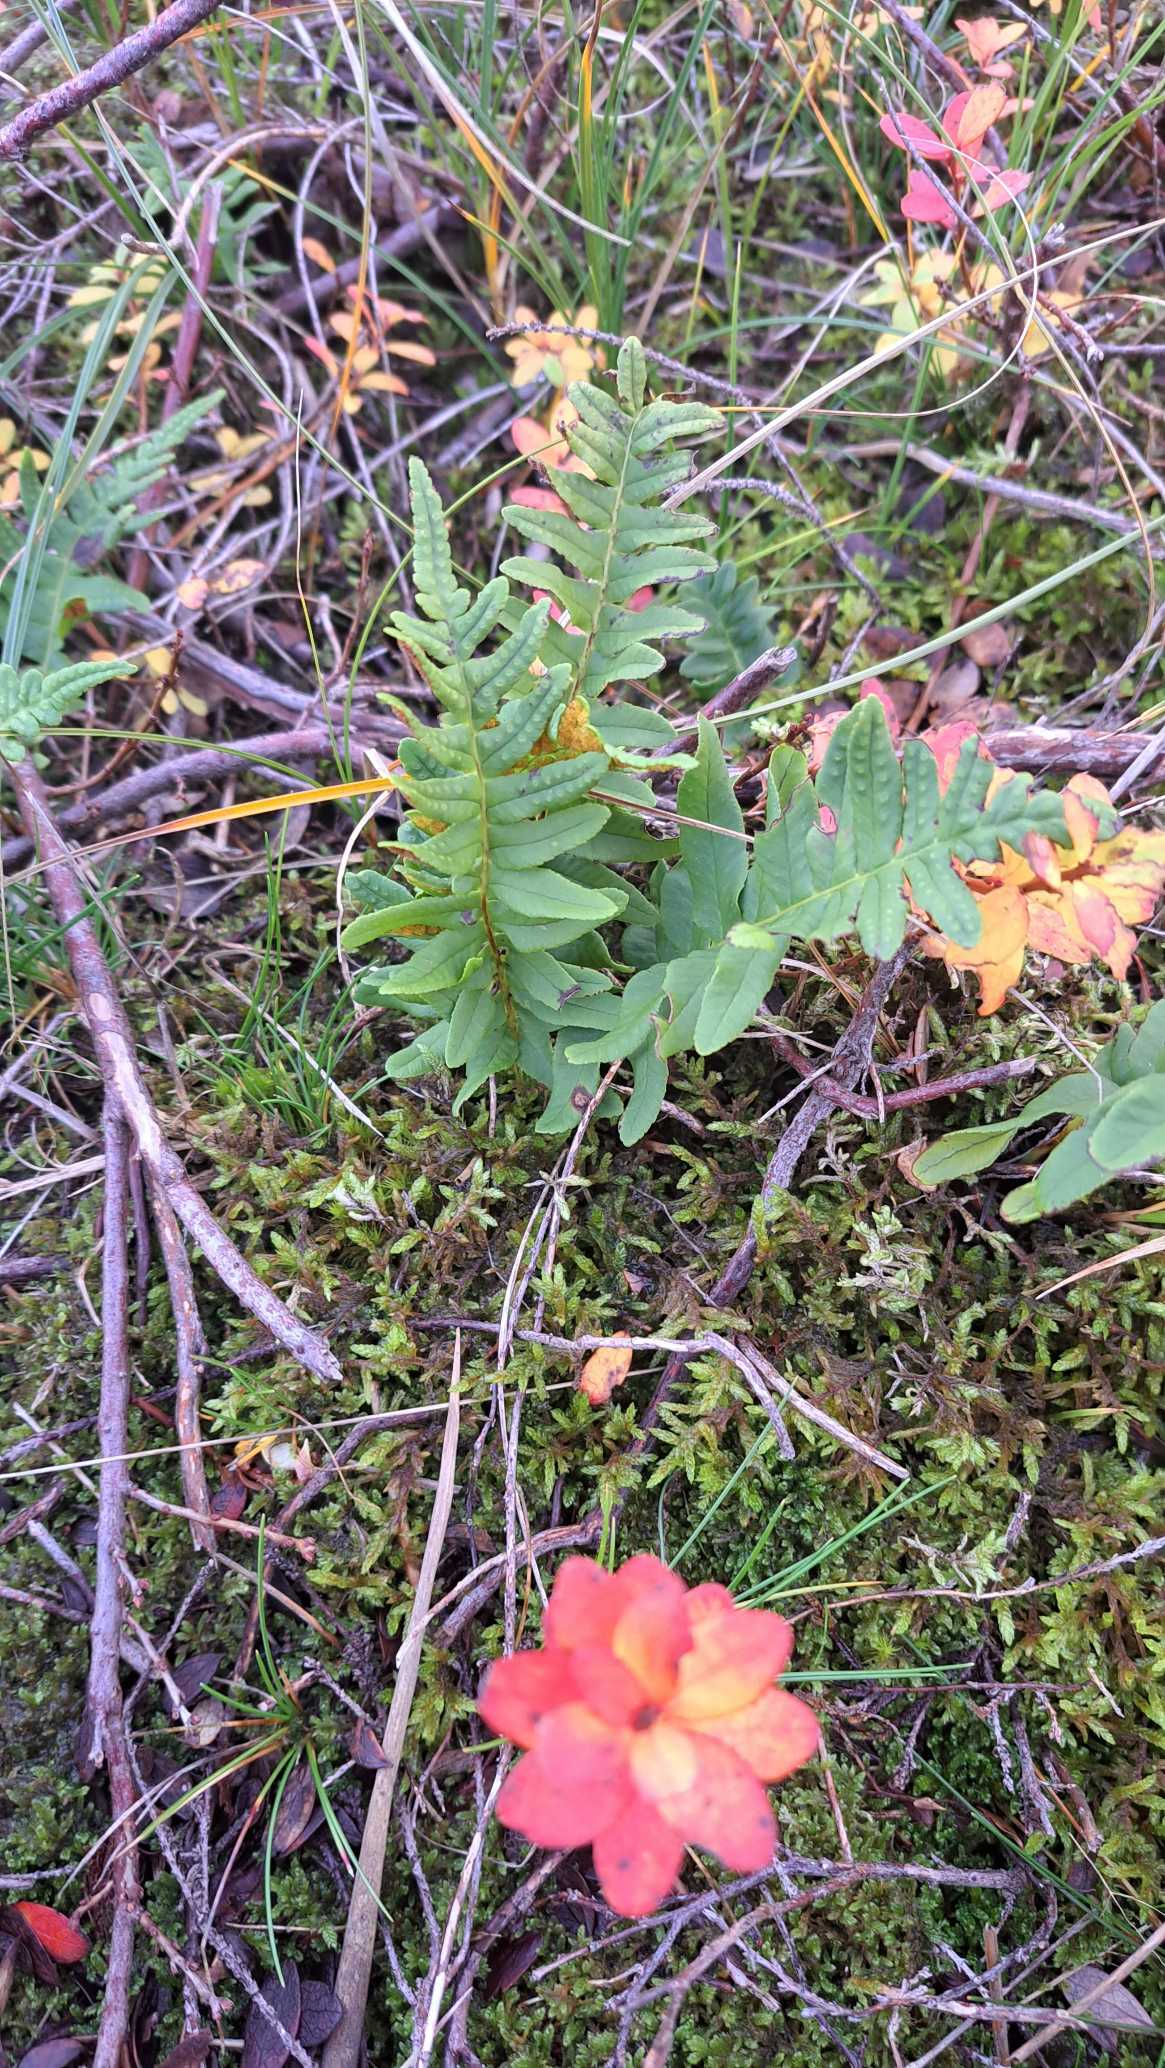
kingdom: Plantae
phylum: Tracheophyta
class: Polypodiopsida
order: Polypodiales
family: Polypodiaceae
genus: Polypodium
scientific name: Polypodium vulgare
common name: Almindelig engelsød
